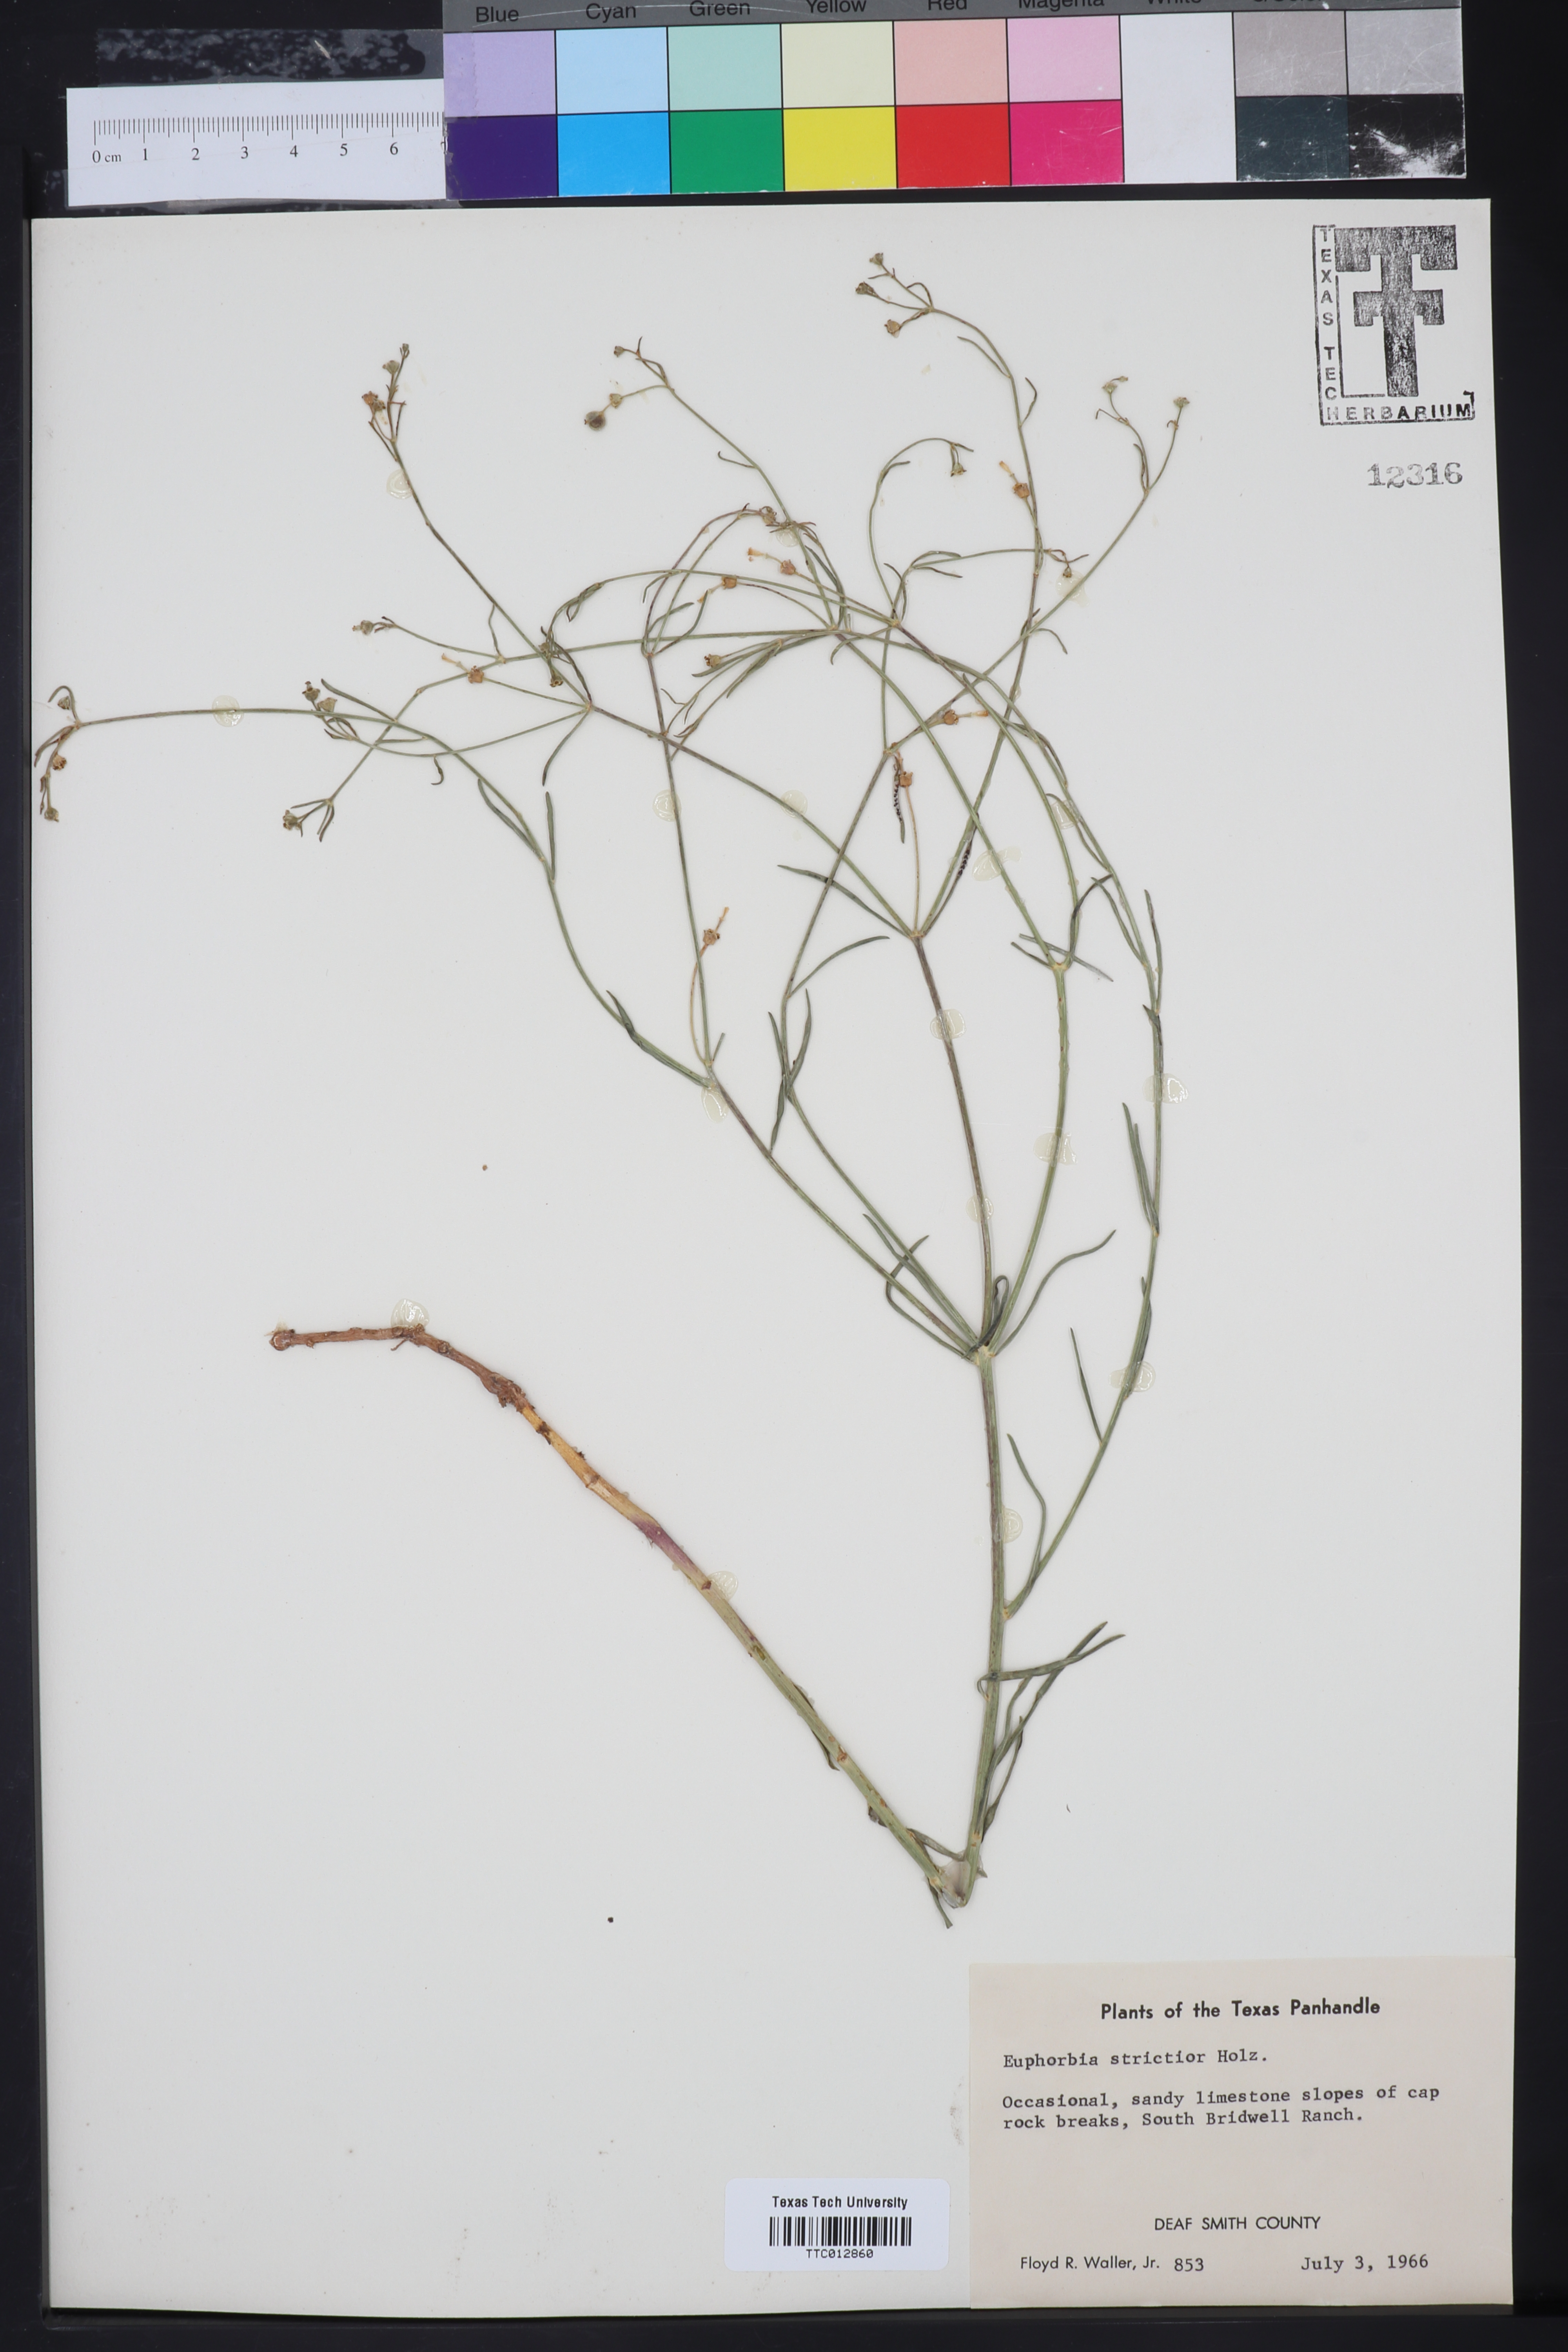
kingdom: Plantae
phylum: Tracheophyta
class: Magnoliopsida
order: Malpighiales
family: Euphorbiaceae
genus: Euphorbia
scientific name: Euphorbia strictior
